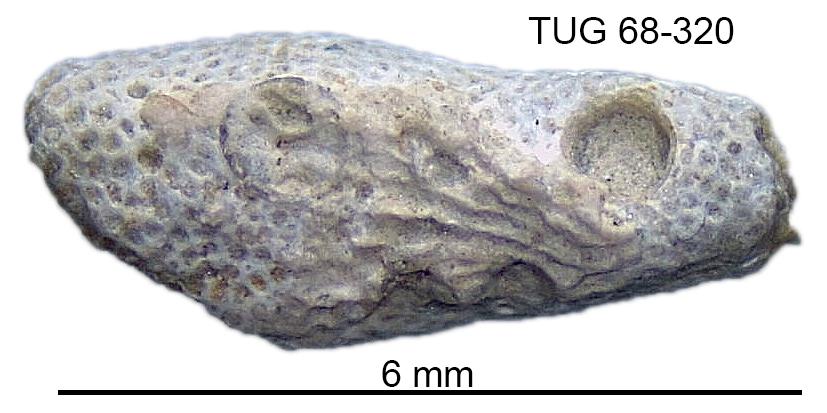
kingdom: Animalia
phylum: Bryozoa
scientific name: Bryozoa
